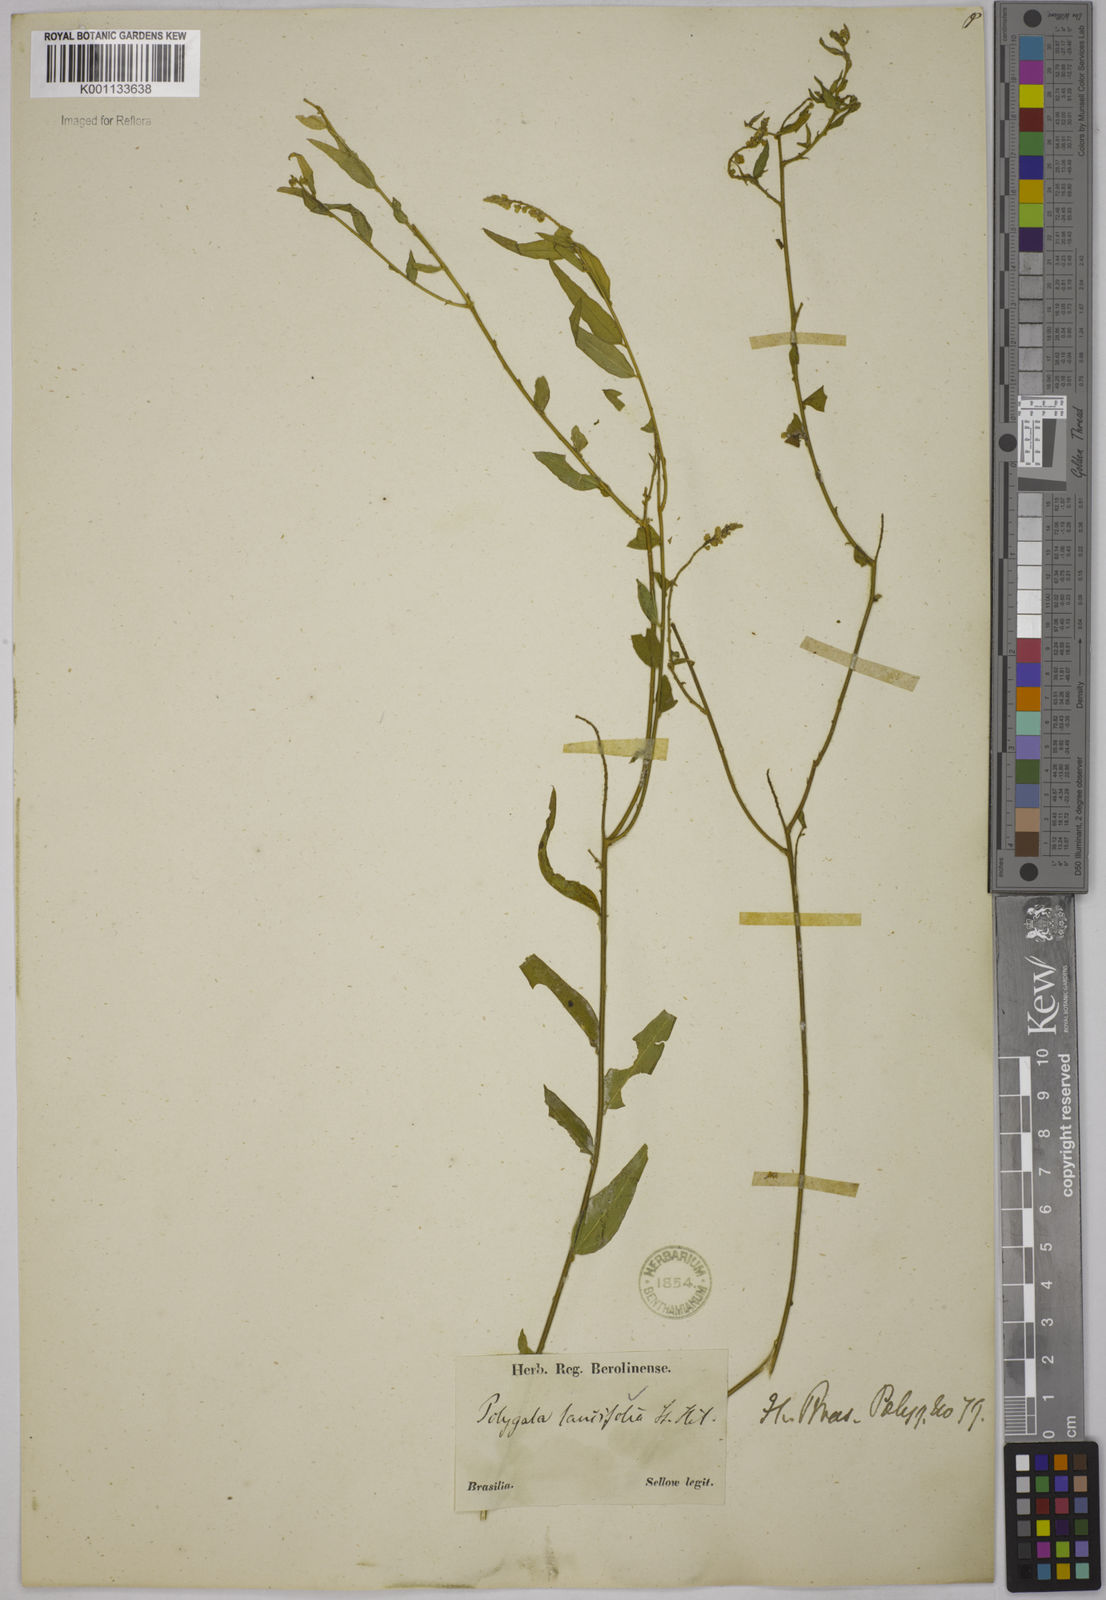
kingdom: Plantae
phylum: Tracheophyta
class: Magnoliopsida
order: Fabales
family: Polygalaceae
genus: Polygala
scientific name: Polygala lancifolia
